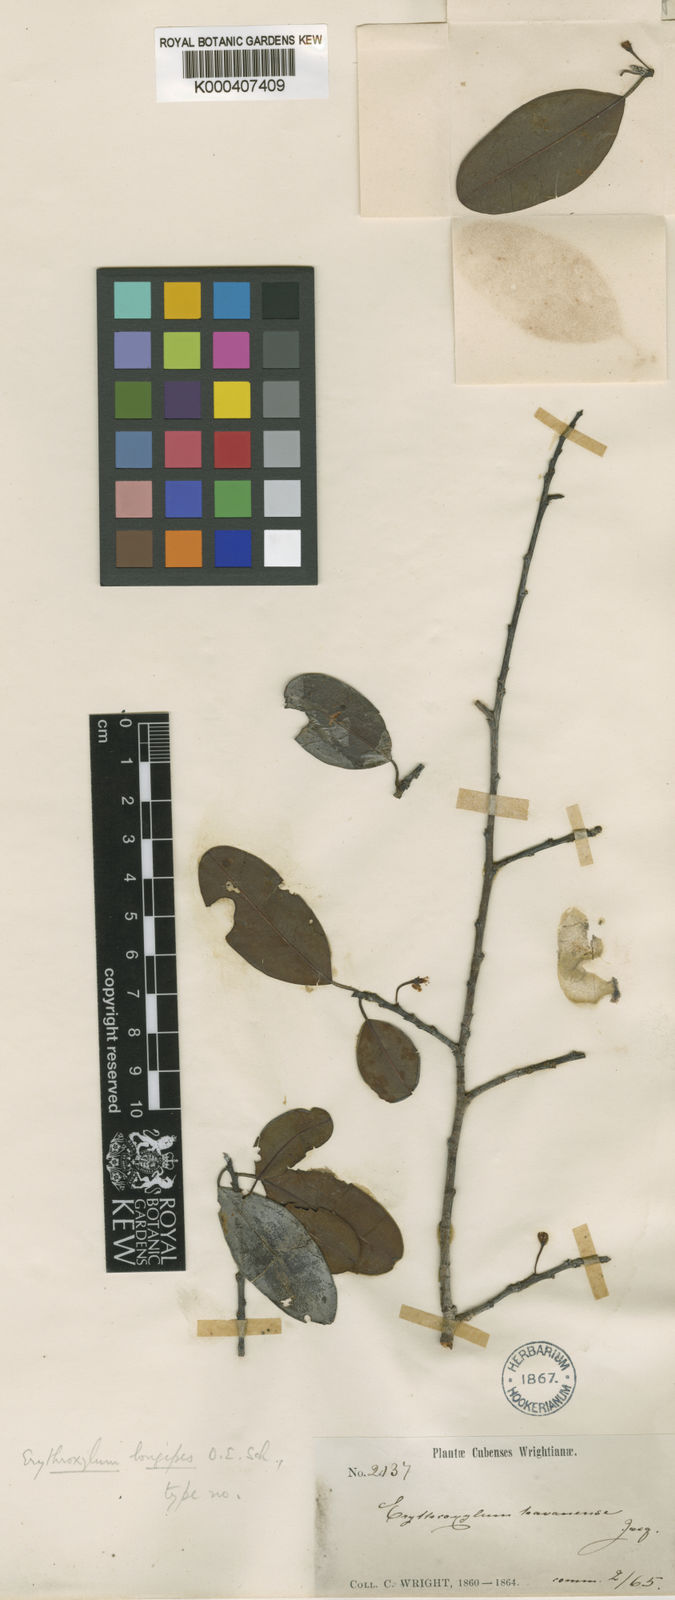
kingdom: Plantae
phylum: Tracheophyta
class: Magnoliopsida
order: Malpighiales
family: Erythroxylaceae
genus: Erythroxylum
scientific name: Erythroxylum longipes
